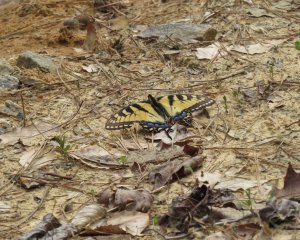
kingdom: Animalia
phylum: Arthropoda
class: Insecta
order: Lepidoptera
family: Papilionidae
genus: Pterourus
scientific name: Pterourus glaucus
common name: Eastern Tiger Swallowtail
